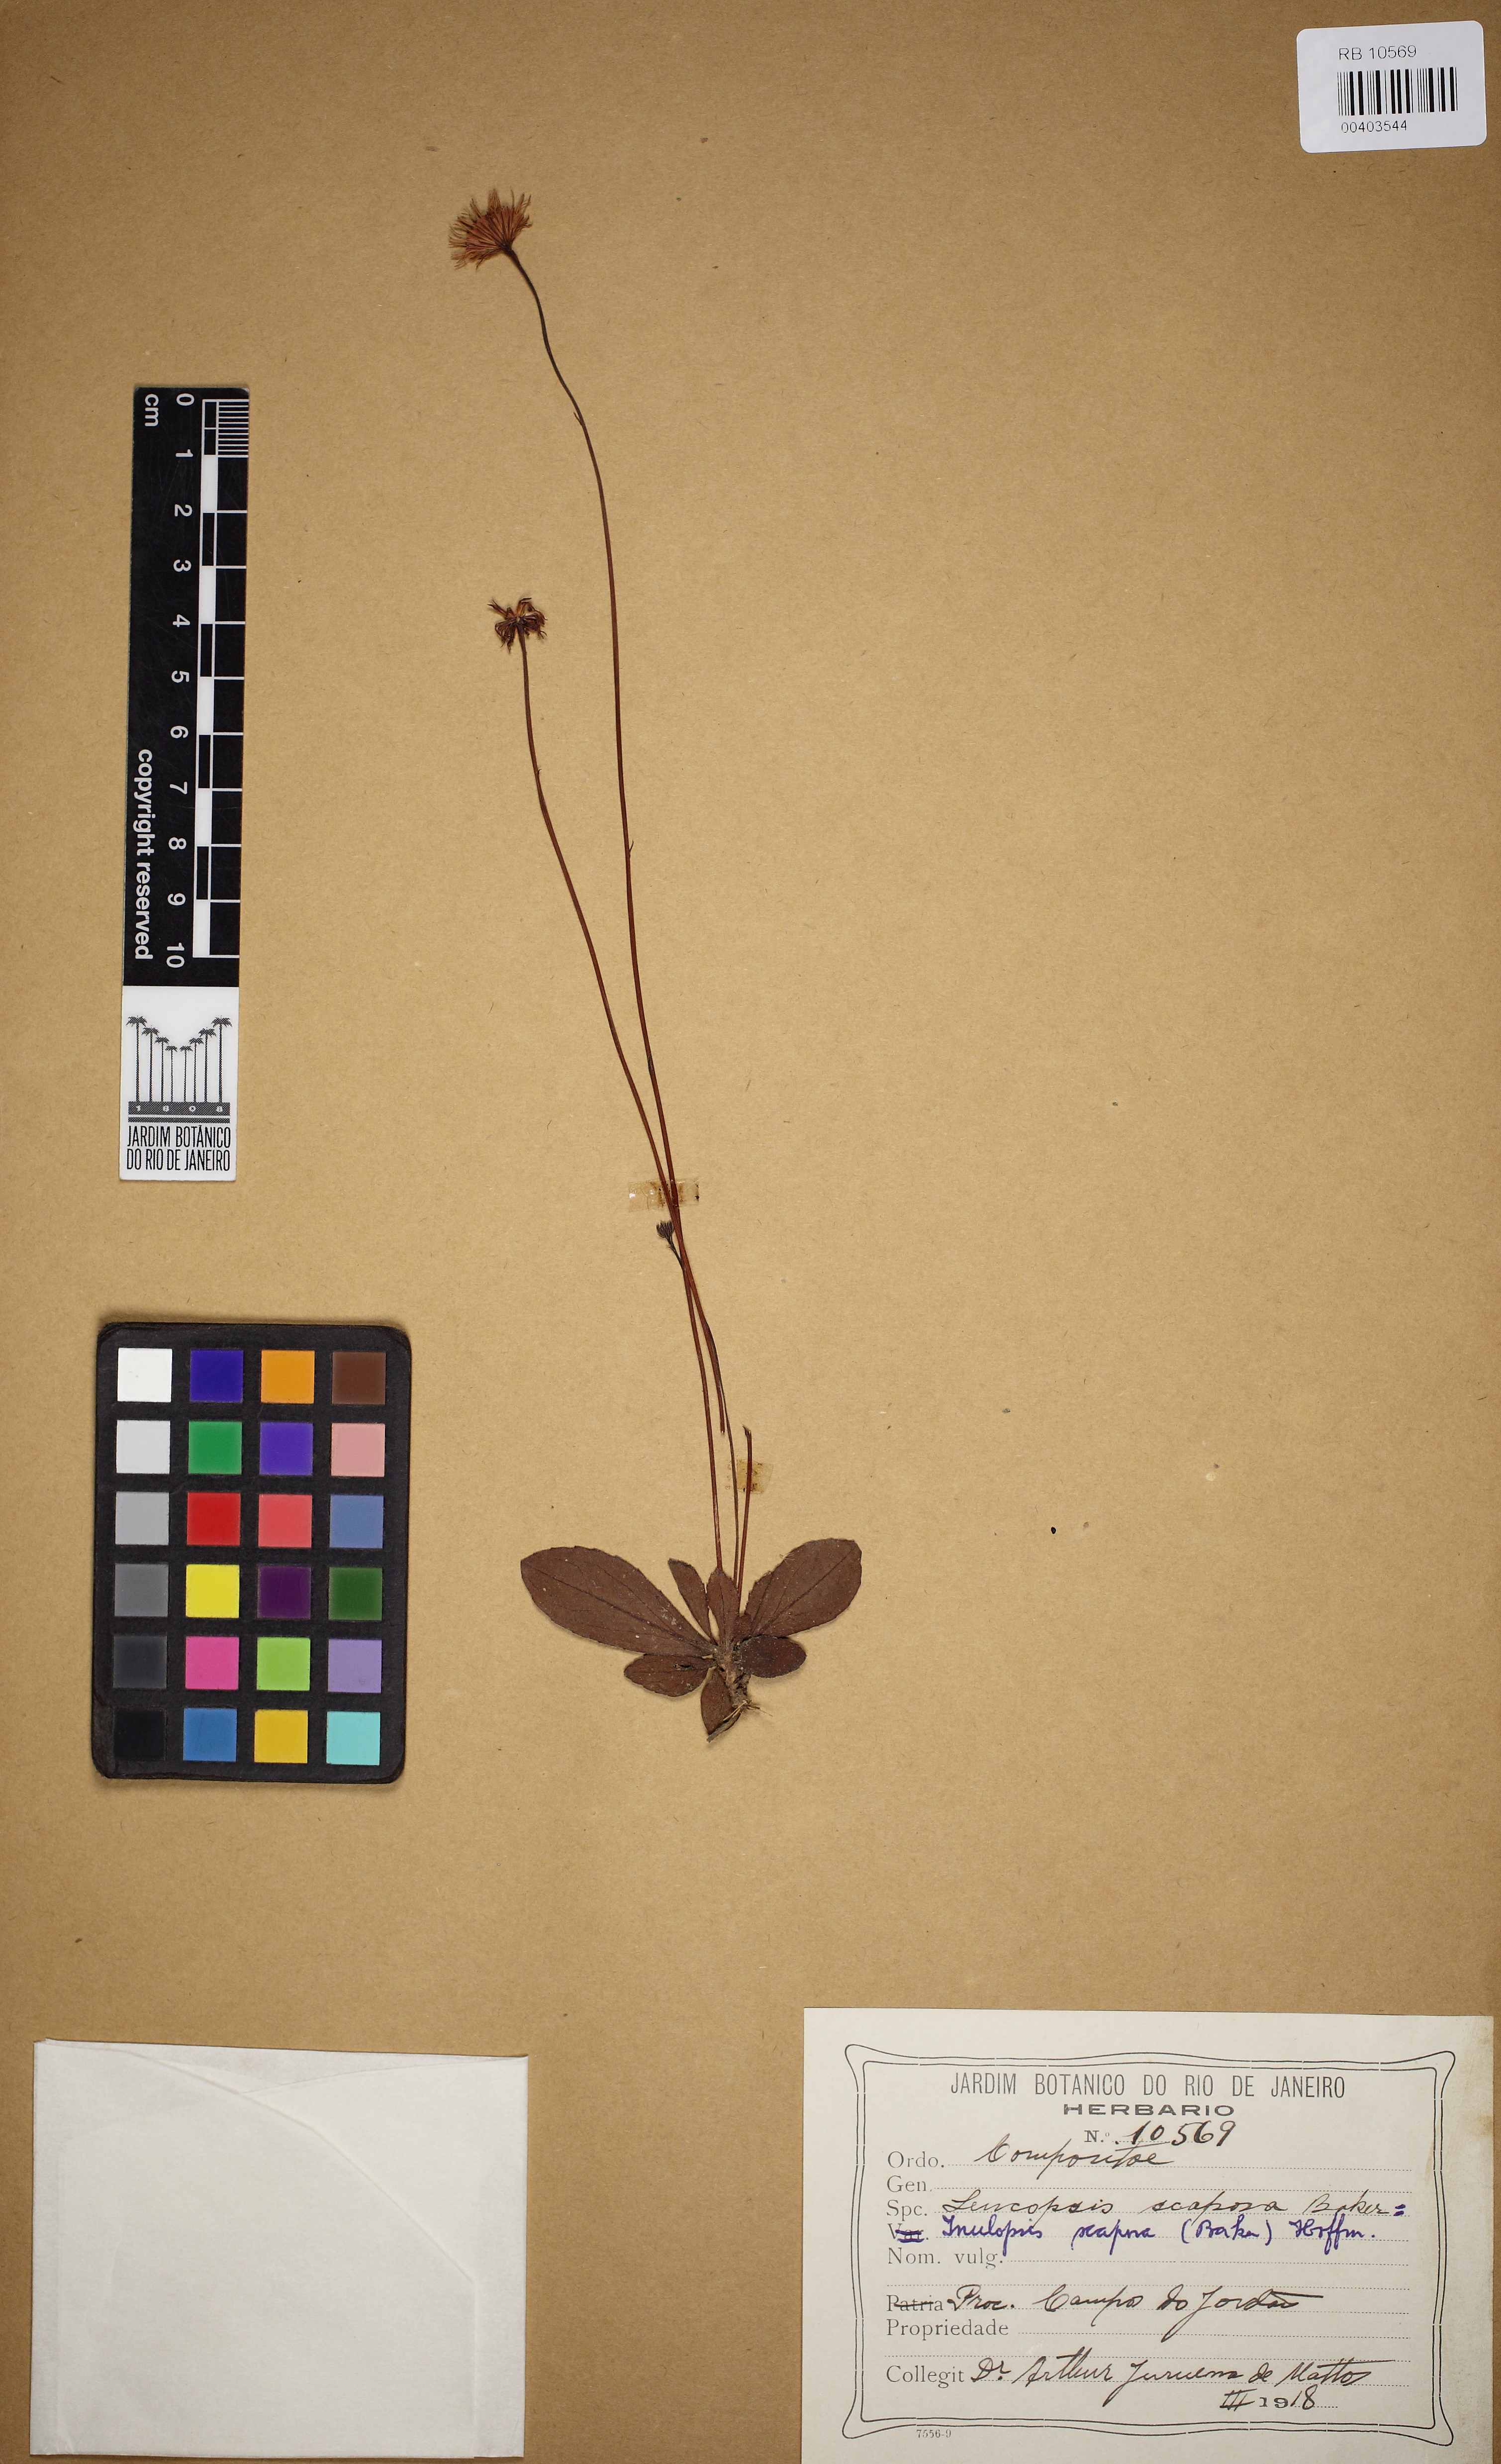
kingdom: Plantae
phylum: Tracheophyta
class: Magnoliopsida
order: Asterales
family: Asteraceae
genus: Inulopsis
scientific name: Inulopsis scaposa
